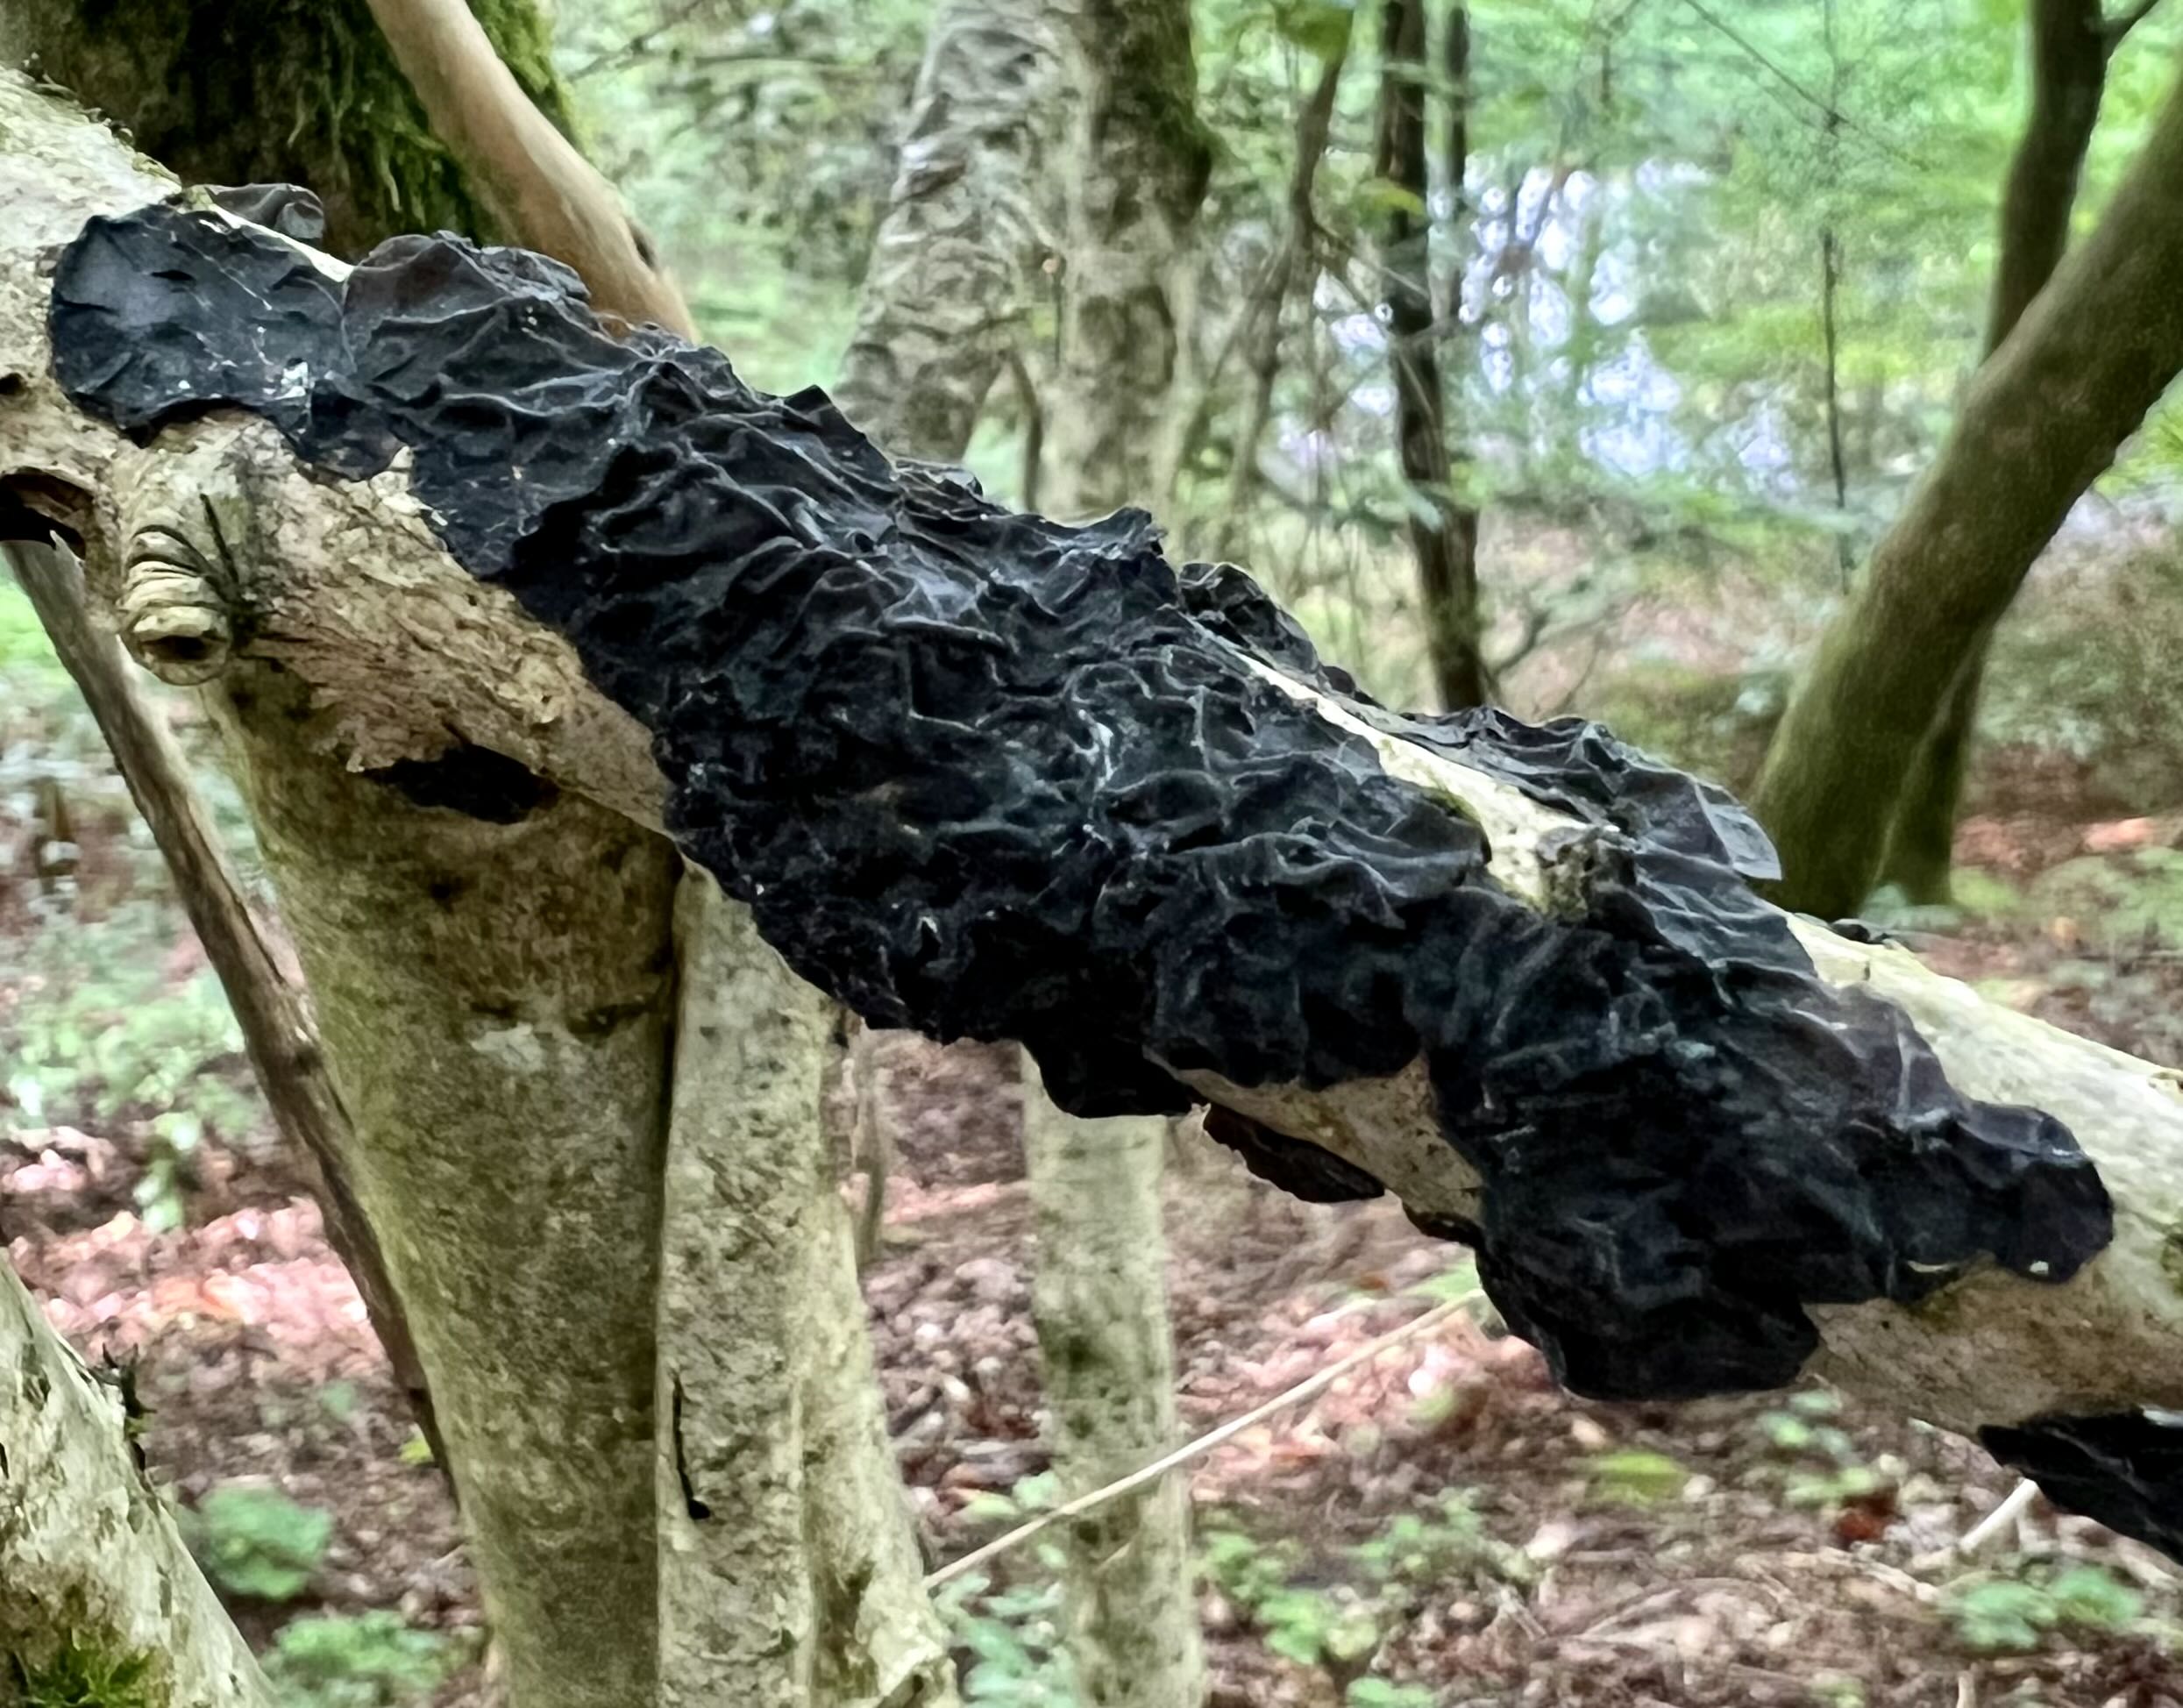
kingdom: Fungi
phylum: Basidiomycota
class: Agaricomycetes
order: Auriculariales
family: Auriculariaceae
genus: Exidia
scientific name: Exidia nigricans
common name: almindelig bævretop
